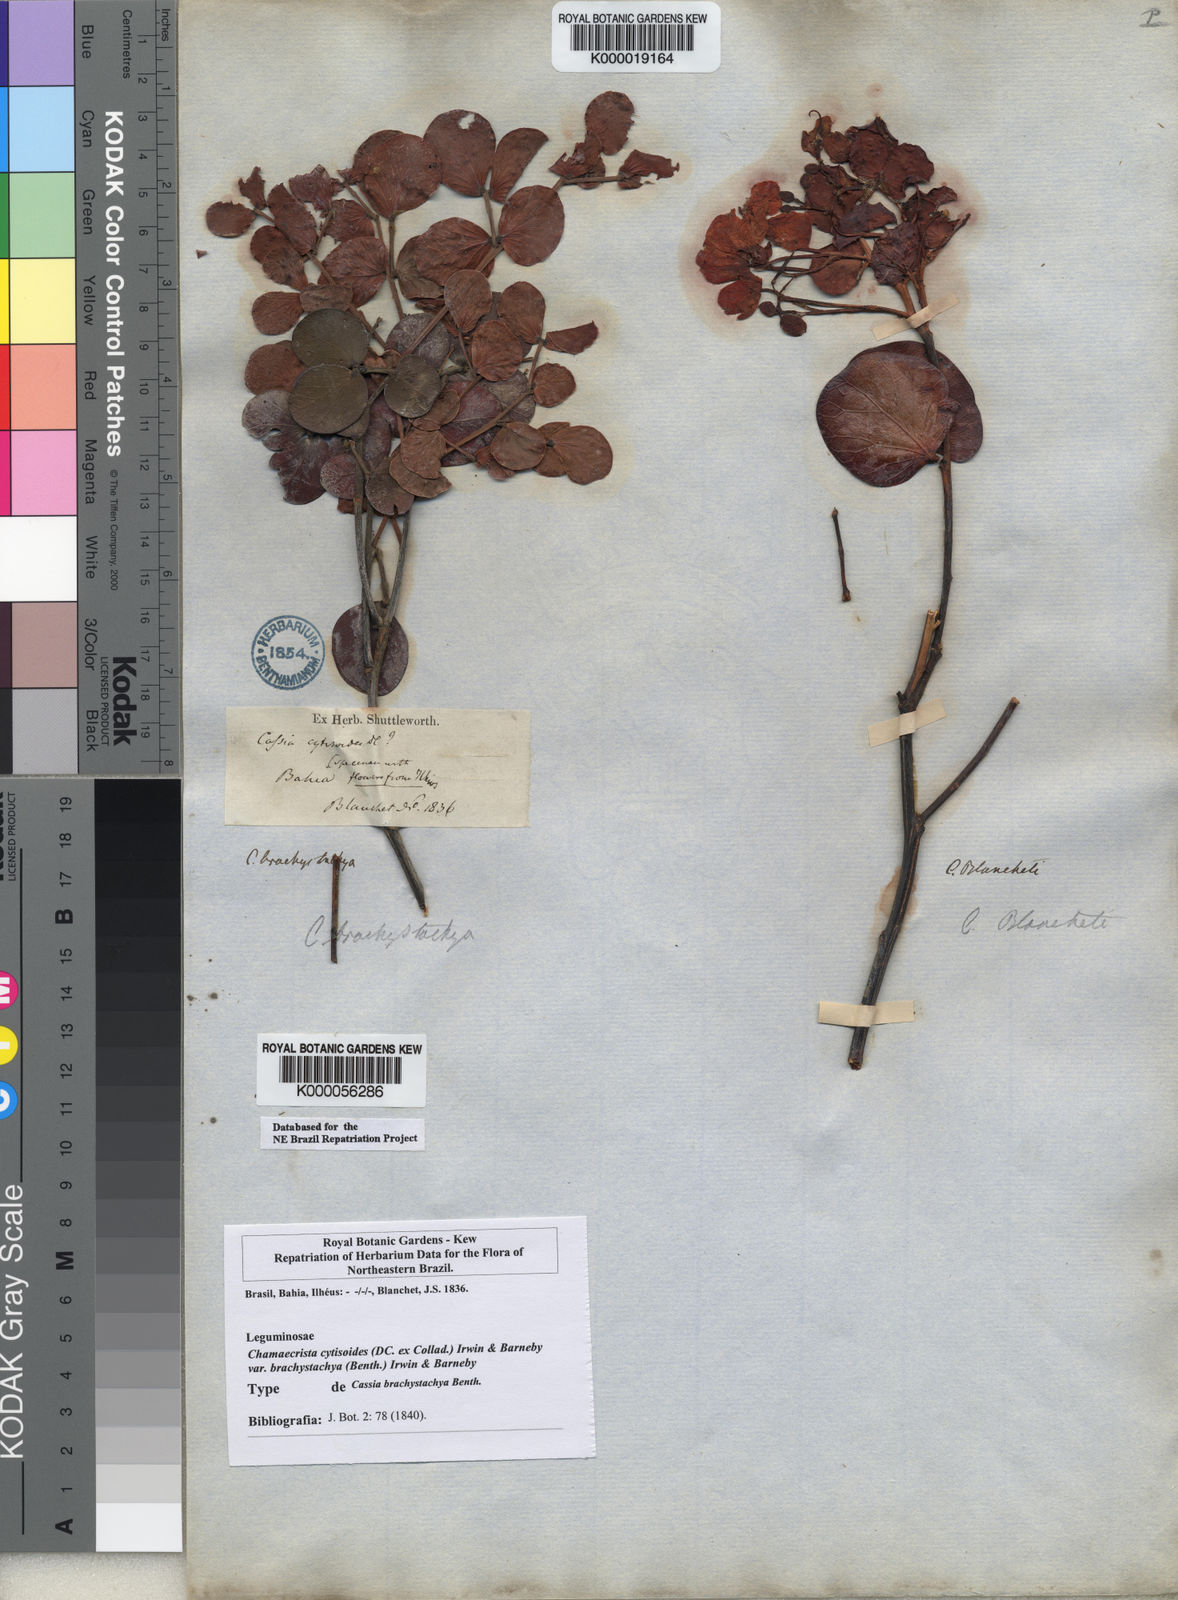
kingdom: Plantae
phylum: Tracheophyta
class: Magnoliopsida
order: Fabales
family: Fabaceae
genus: Chamaecrista
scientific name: Chamaecrista cytisoides
